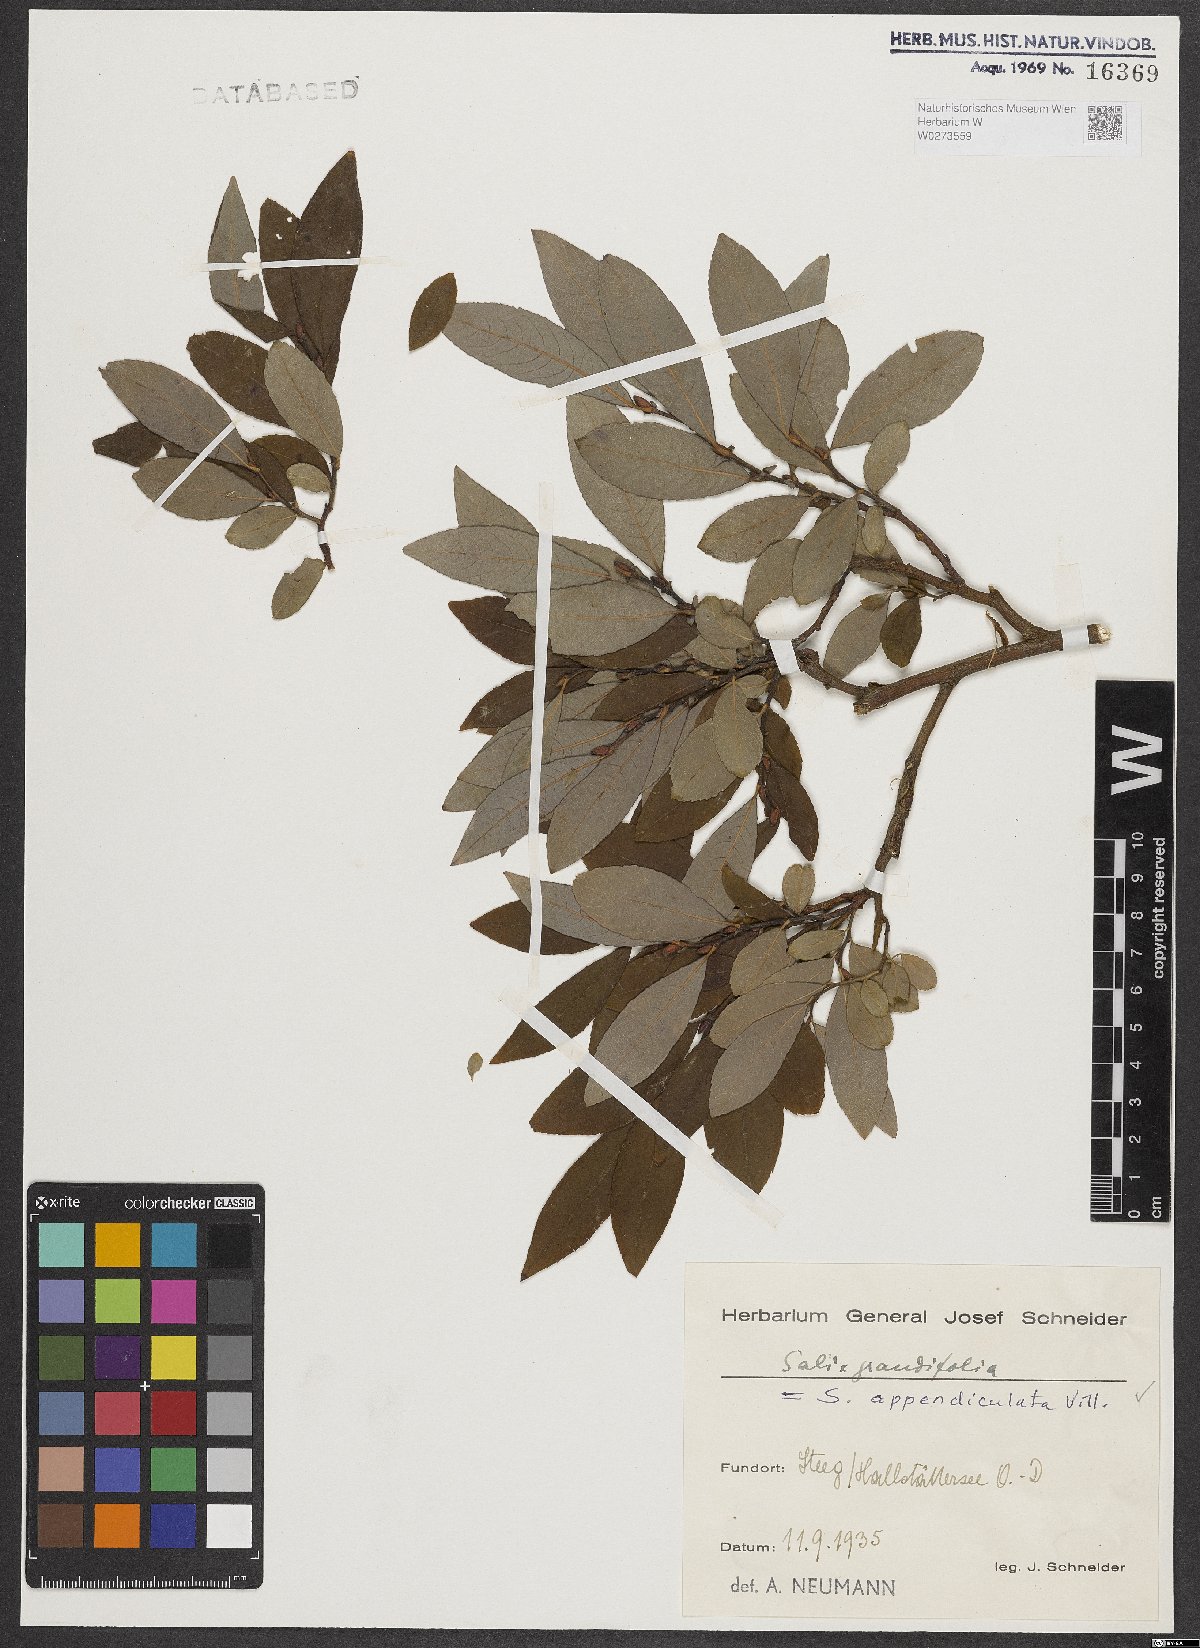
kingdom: Plantae
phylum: Tracheophyta
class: Magnoliopsida
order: Malpighiales
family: Salicaceae
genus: Salix
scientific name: Salix appendiculata
